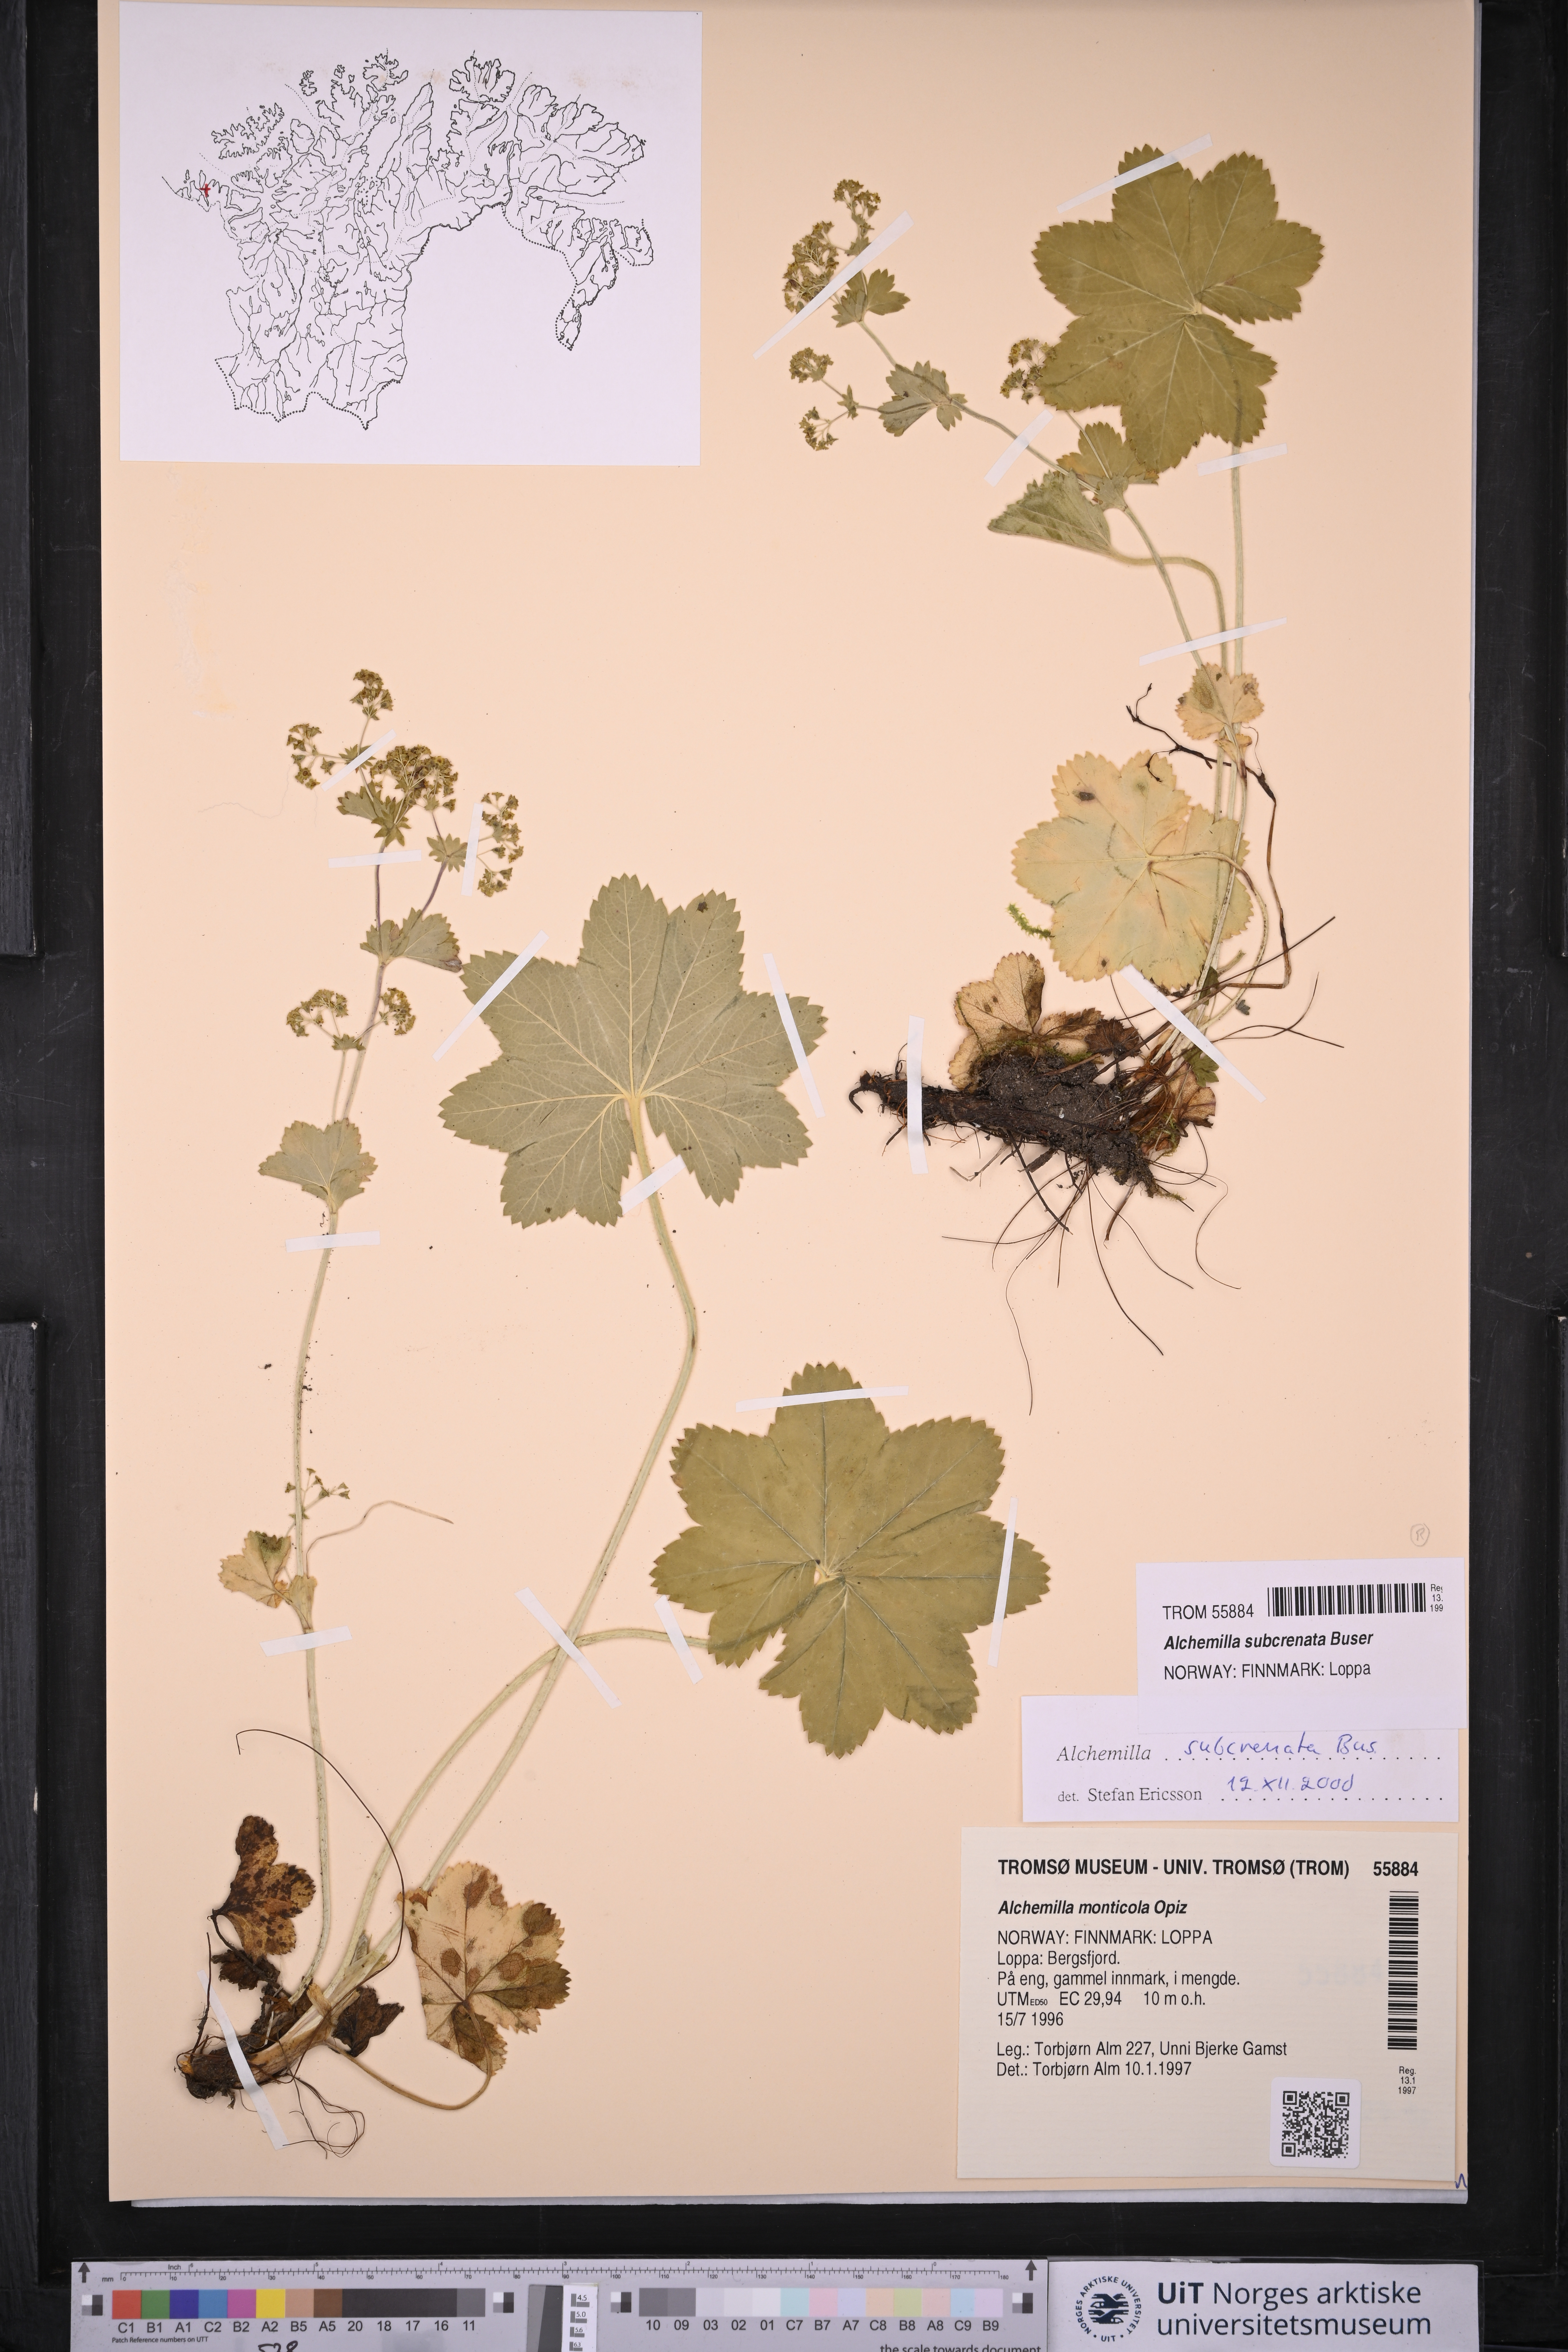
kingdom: Plantae
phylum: Tracheophyta
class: Magnoliopsida
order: Rosales
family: Rosaceae
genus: Alchemilla
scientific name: Alchemilla subcrenata
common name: Broadtooth lady's mantle
